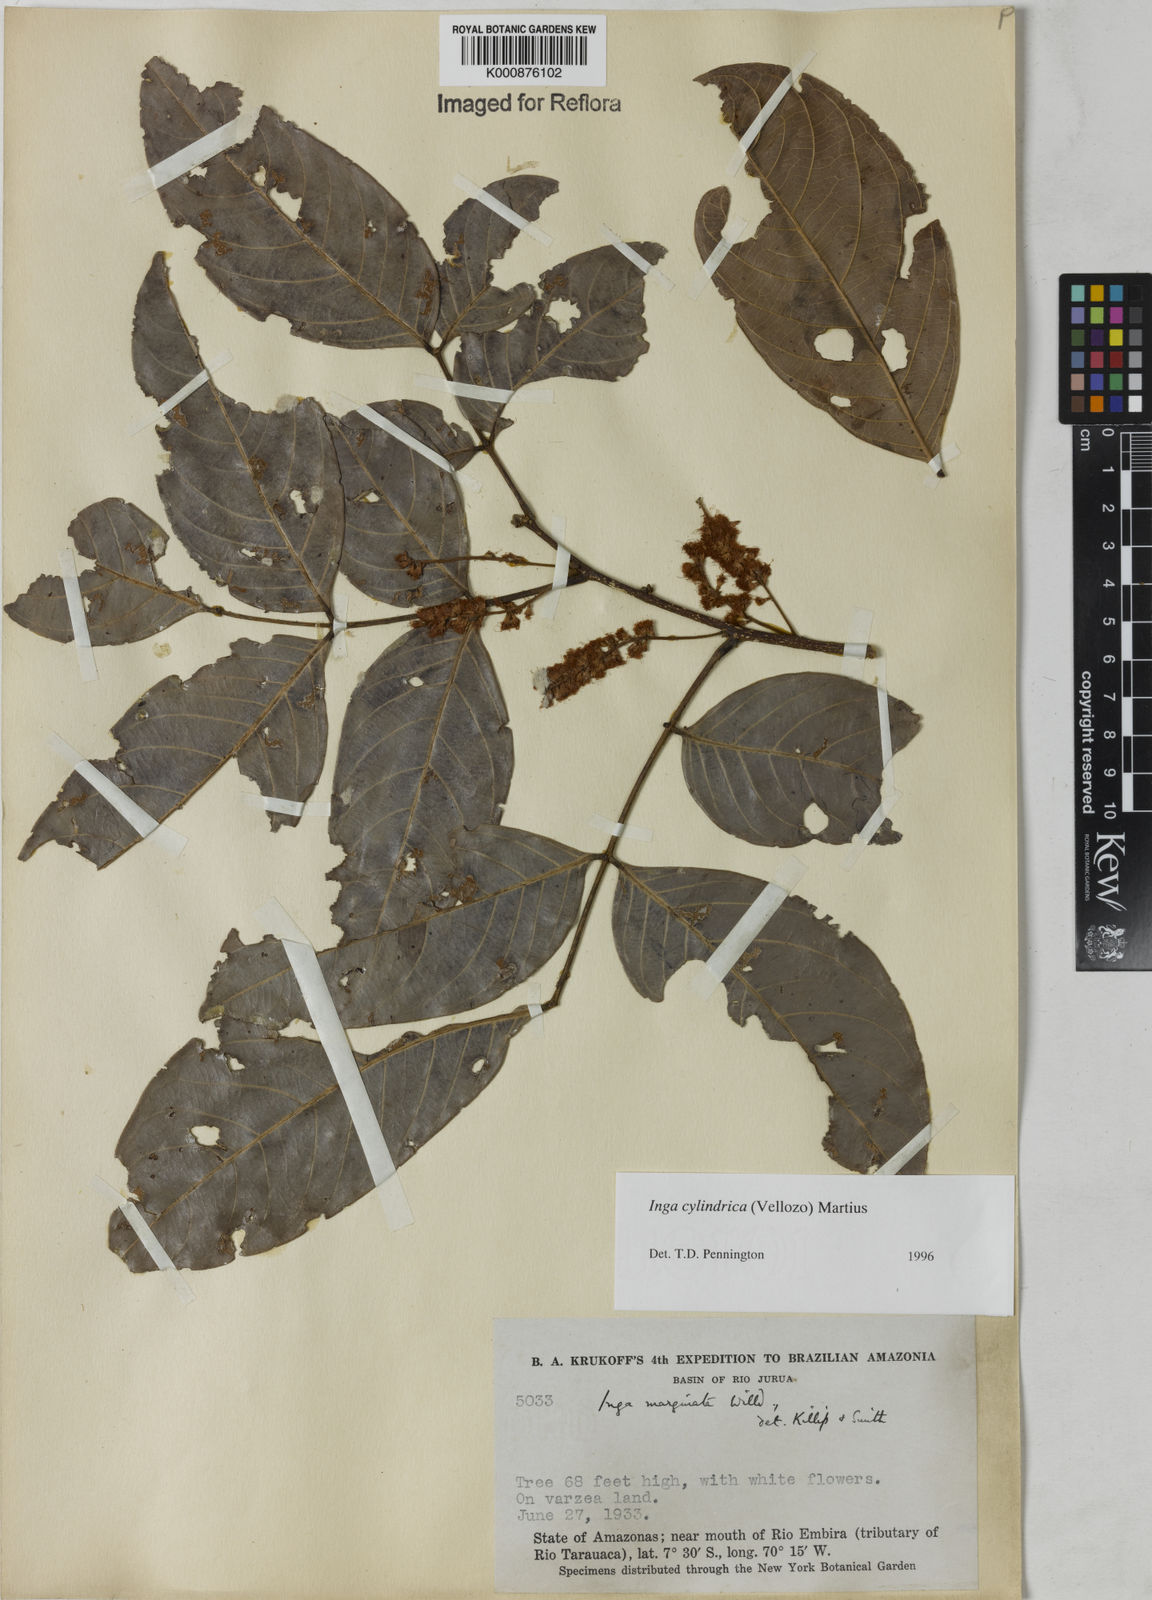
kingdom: Plantae
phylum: Tracheophyta
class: Magnoliopsida
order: Fabales
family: Fabaceae
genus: Inga
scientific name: Inga cylindrica
